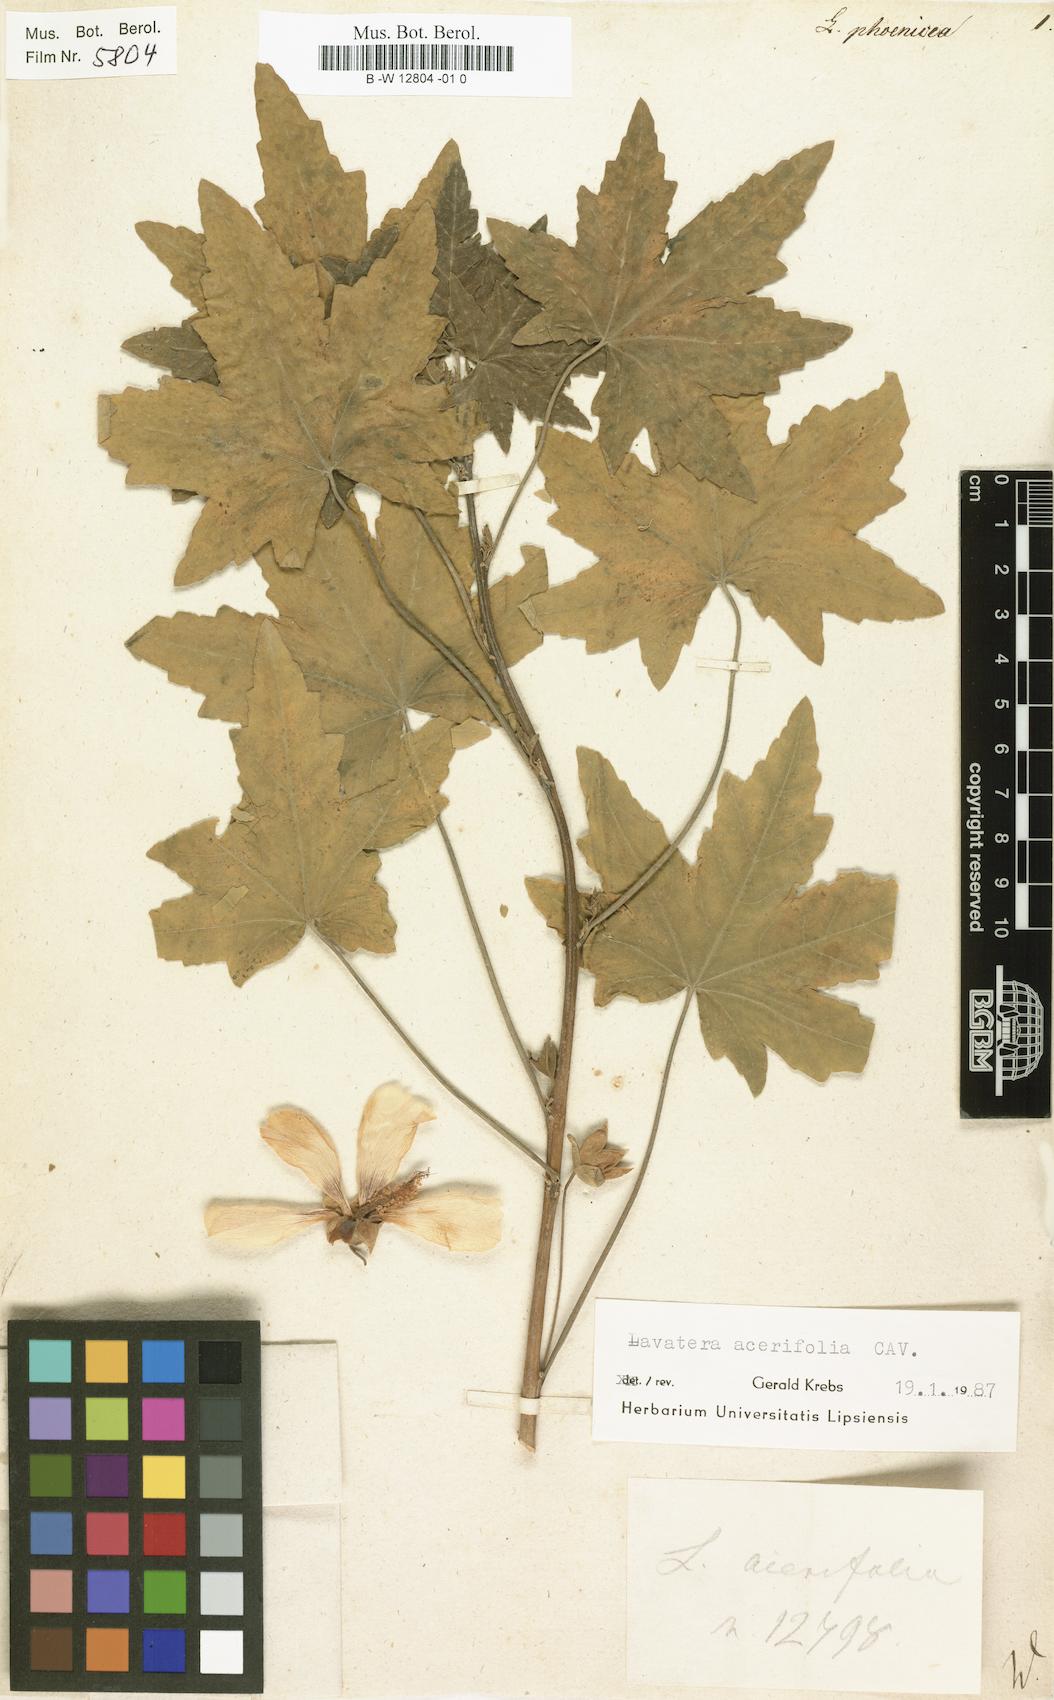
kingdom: Plantae
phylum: Tracheophyta
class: Magnoliopsida
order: Malvales
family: Malvaceae
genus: Malva
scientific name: Malva
